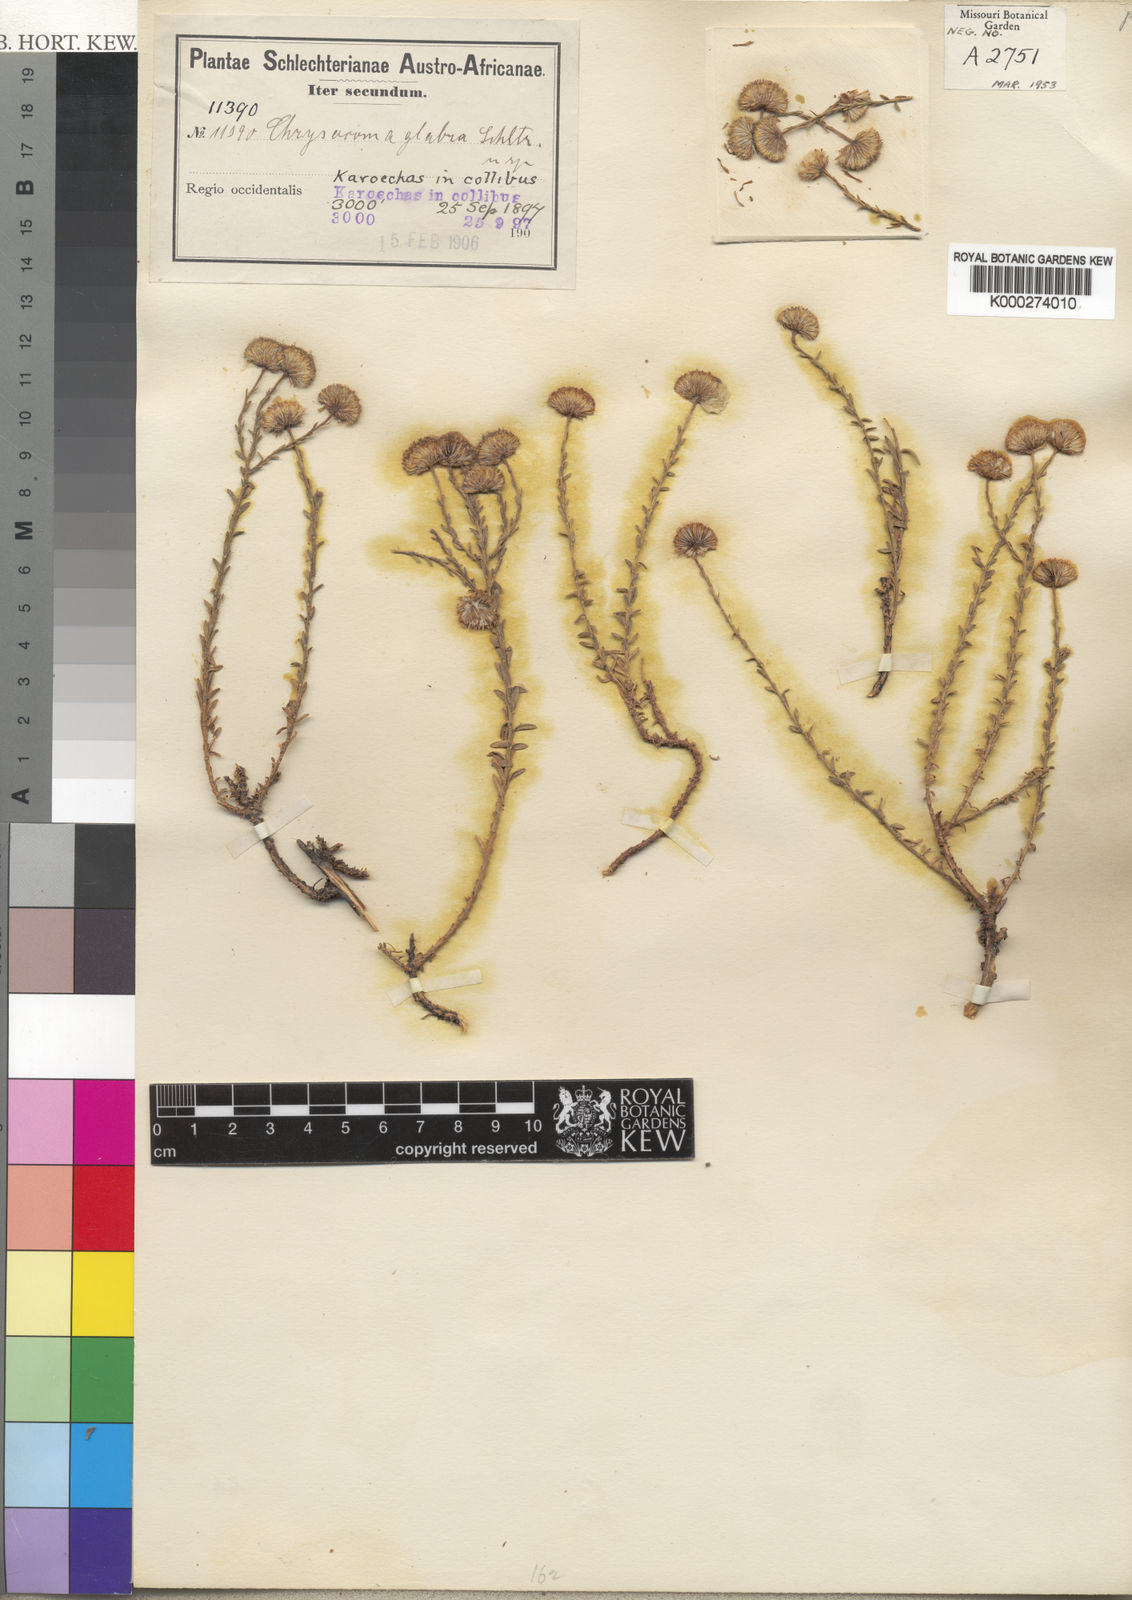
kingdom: Plantae
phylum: Tracheophyta
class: Magnoliopsida
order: Asterales
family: Asteraceae
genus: Chrysocoma
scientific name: Chrysocoma
